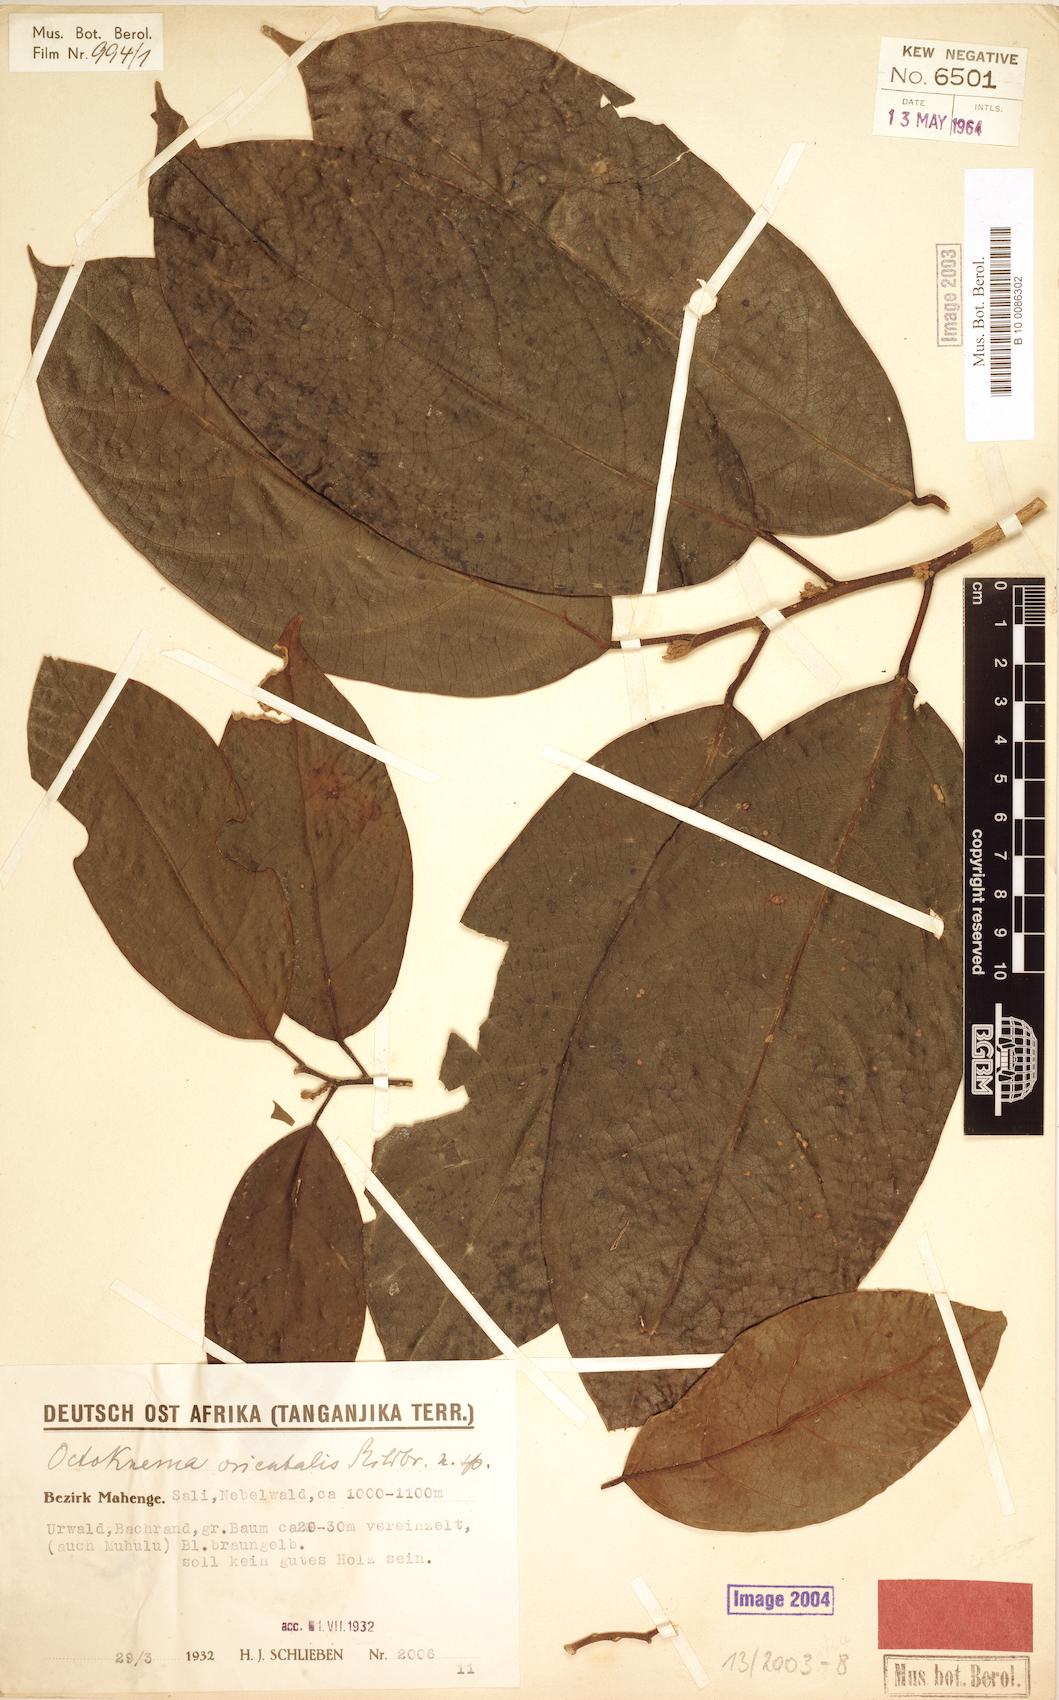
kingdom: Plantae
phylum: Tracheophyta
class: Magnoliopsida
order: Santalales
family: Octoknemaceae
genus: Octoknema
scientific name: Octoknema orientalis
